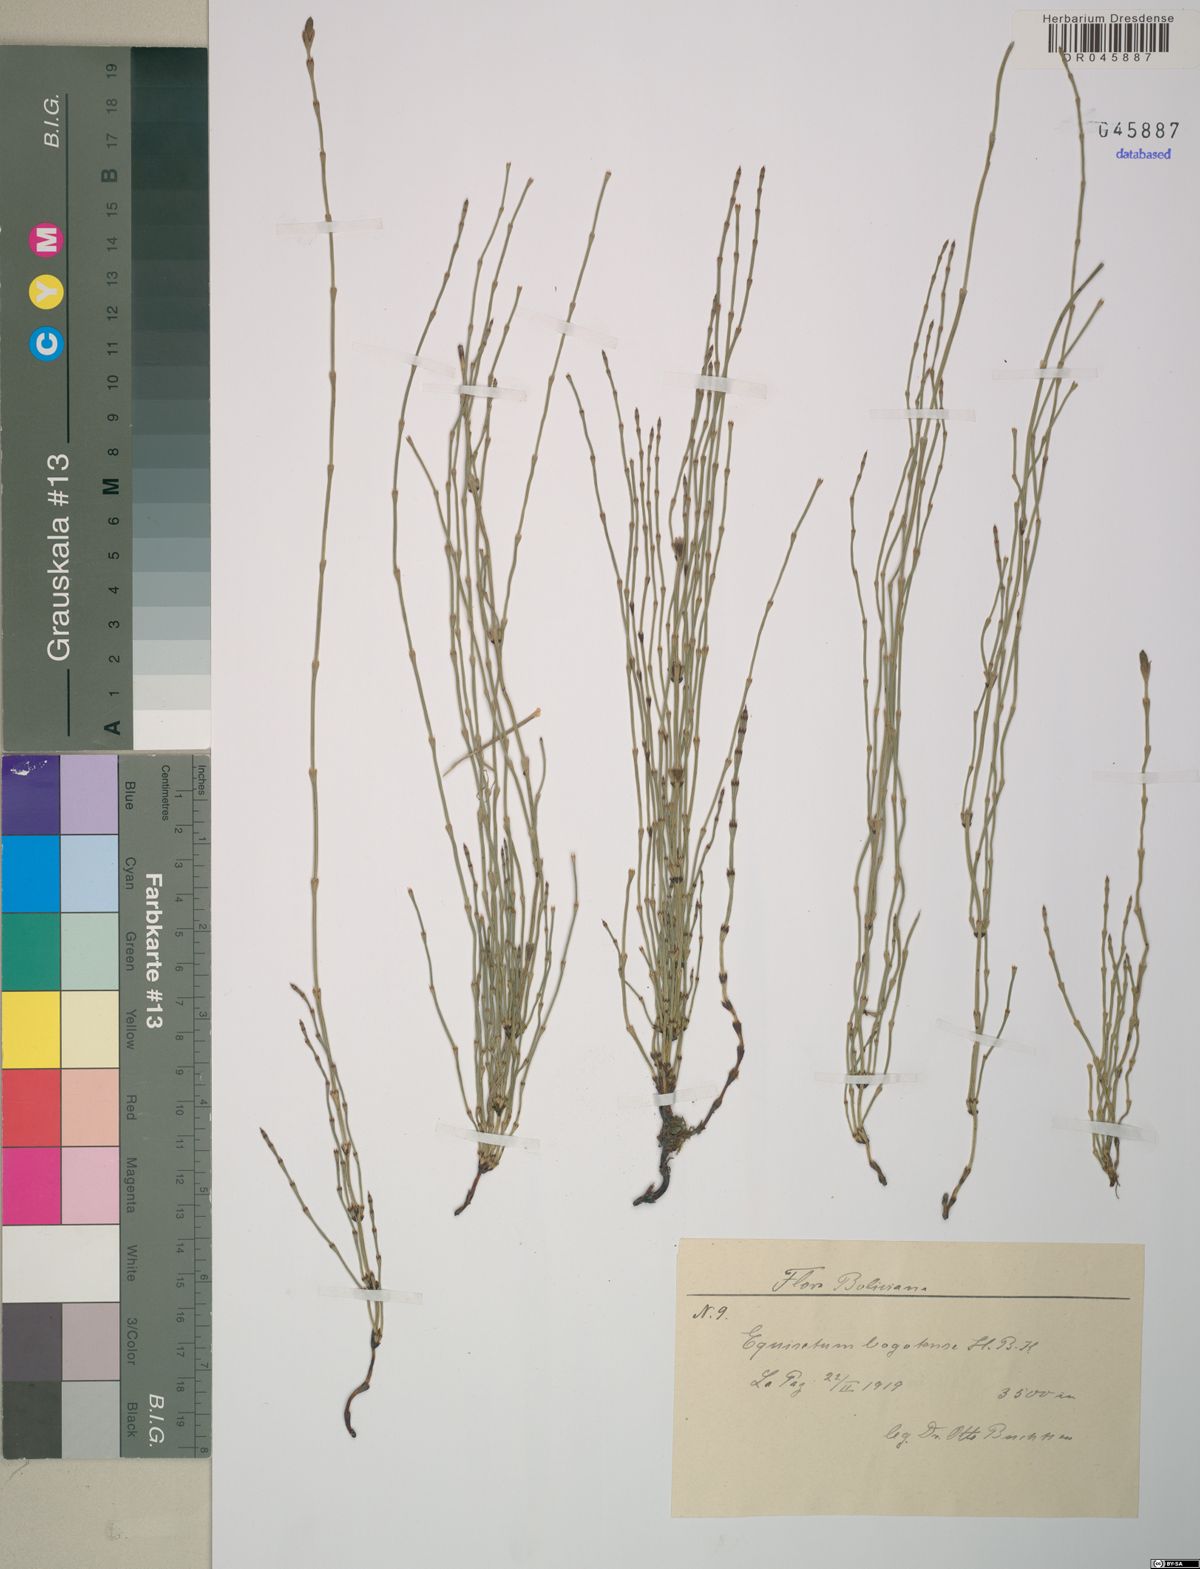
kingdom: Plantae
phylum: Tracheophyta
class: Polypodiopsida
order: Equisetales
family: Equisetaceae
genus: Equisetum
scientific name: Equisetum bogotense
